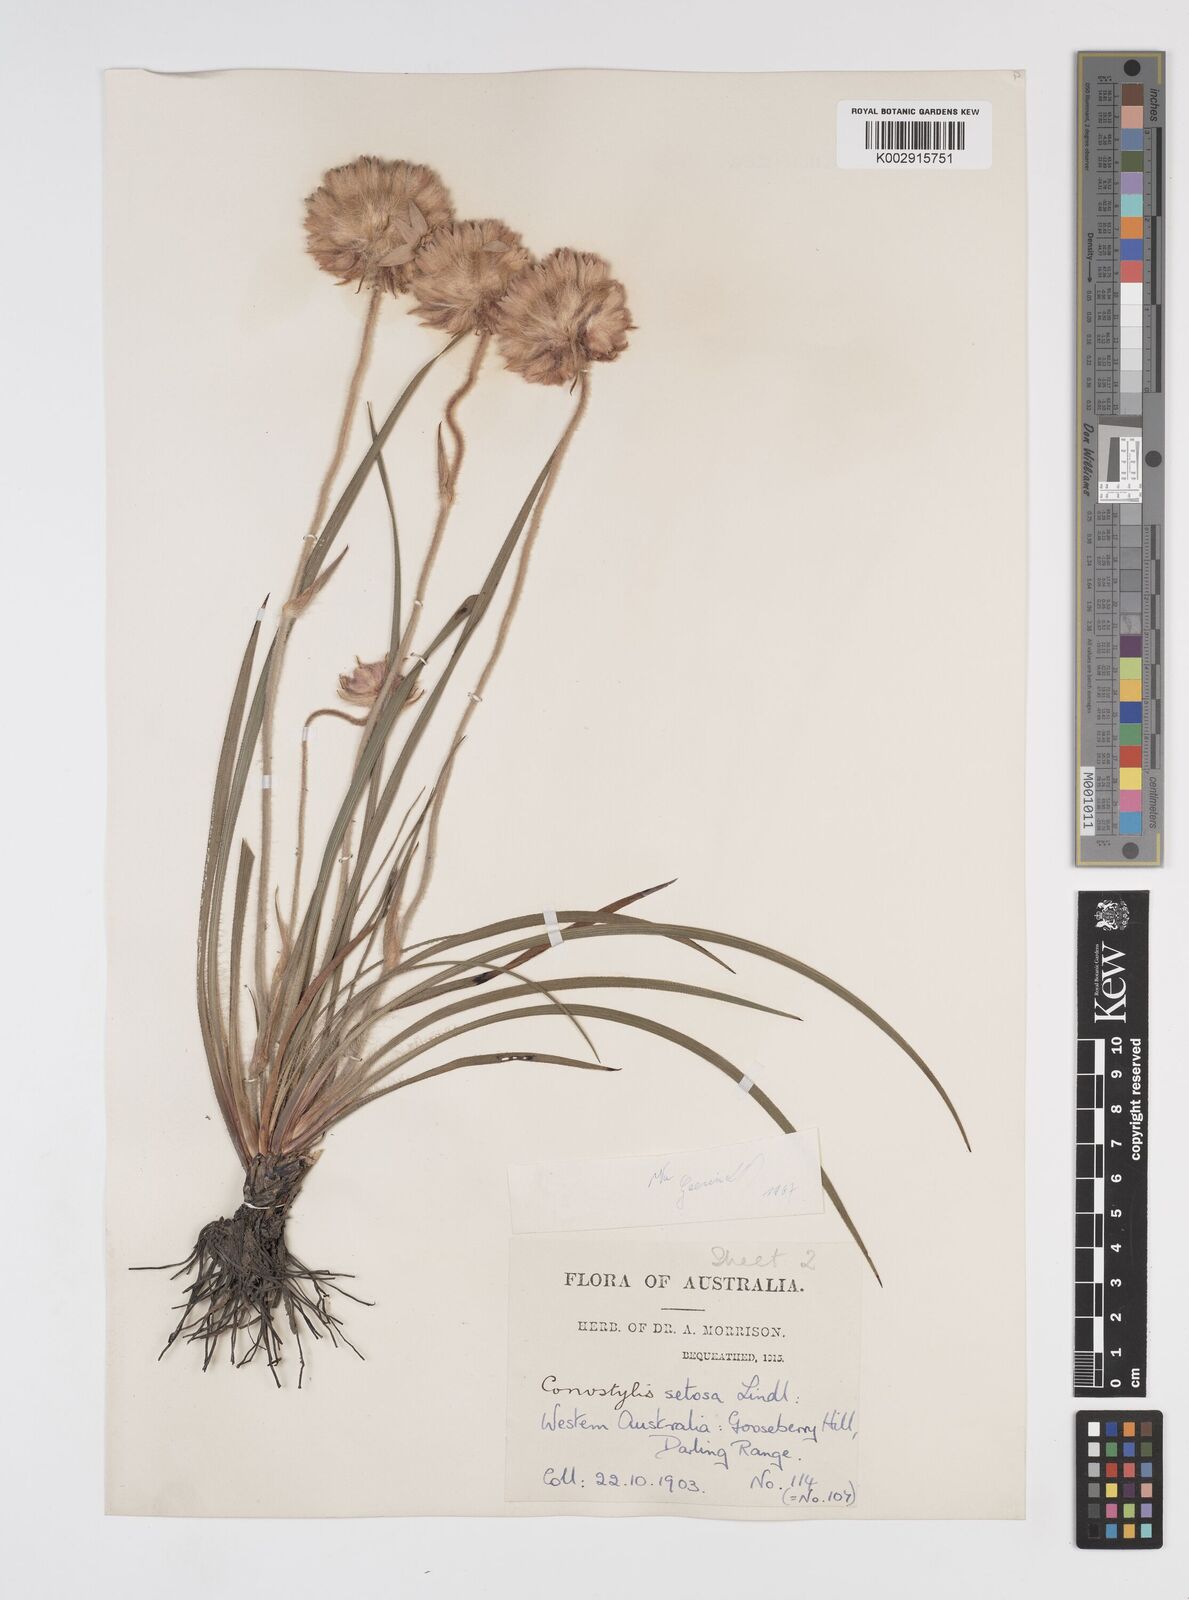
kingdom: Plantae
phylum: Tracheophyta
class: Liliopsida
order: Commelinales
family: Haemodoraceae
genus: Conostylis
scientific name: Conostylis setosa
